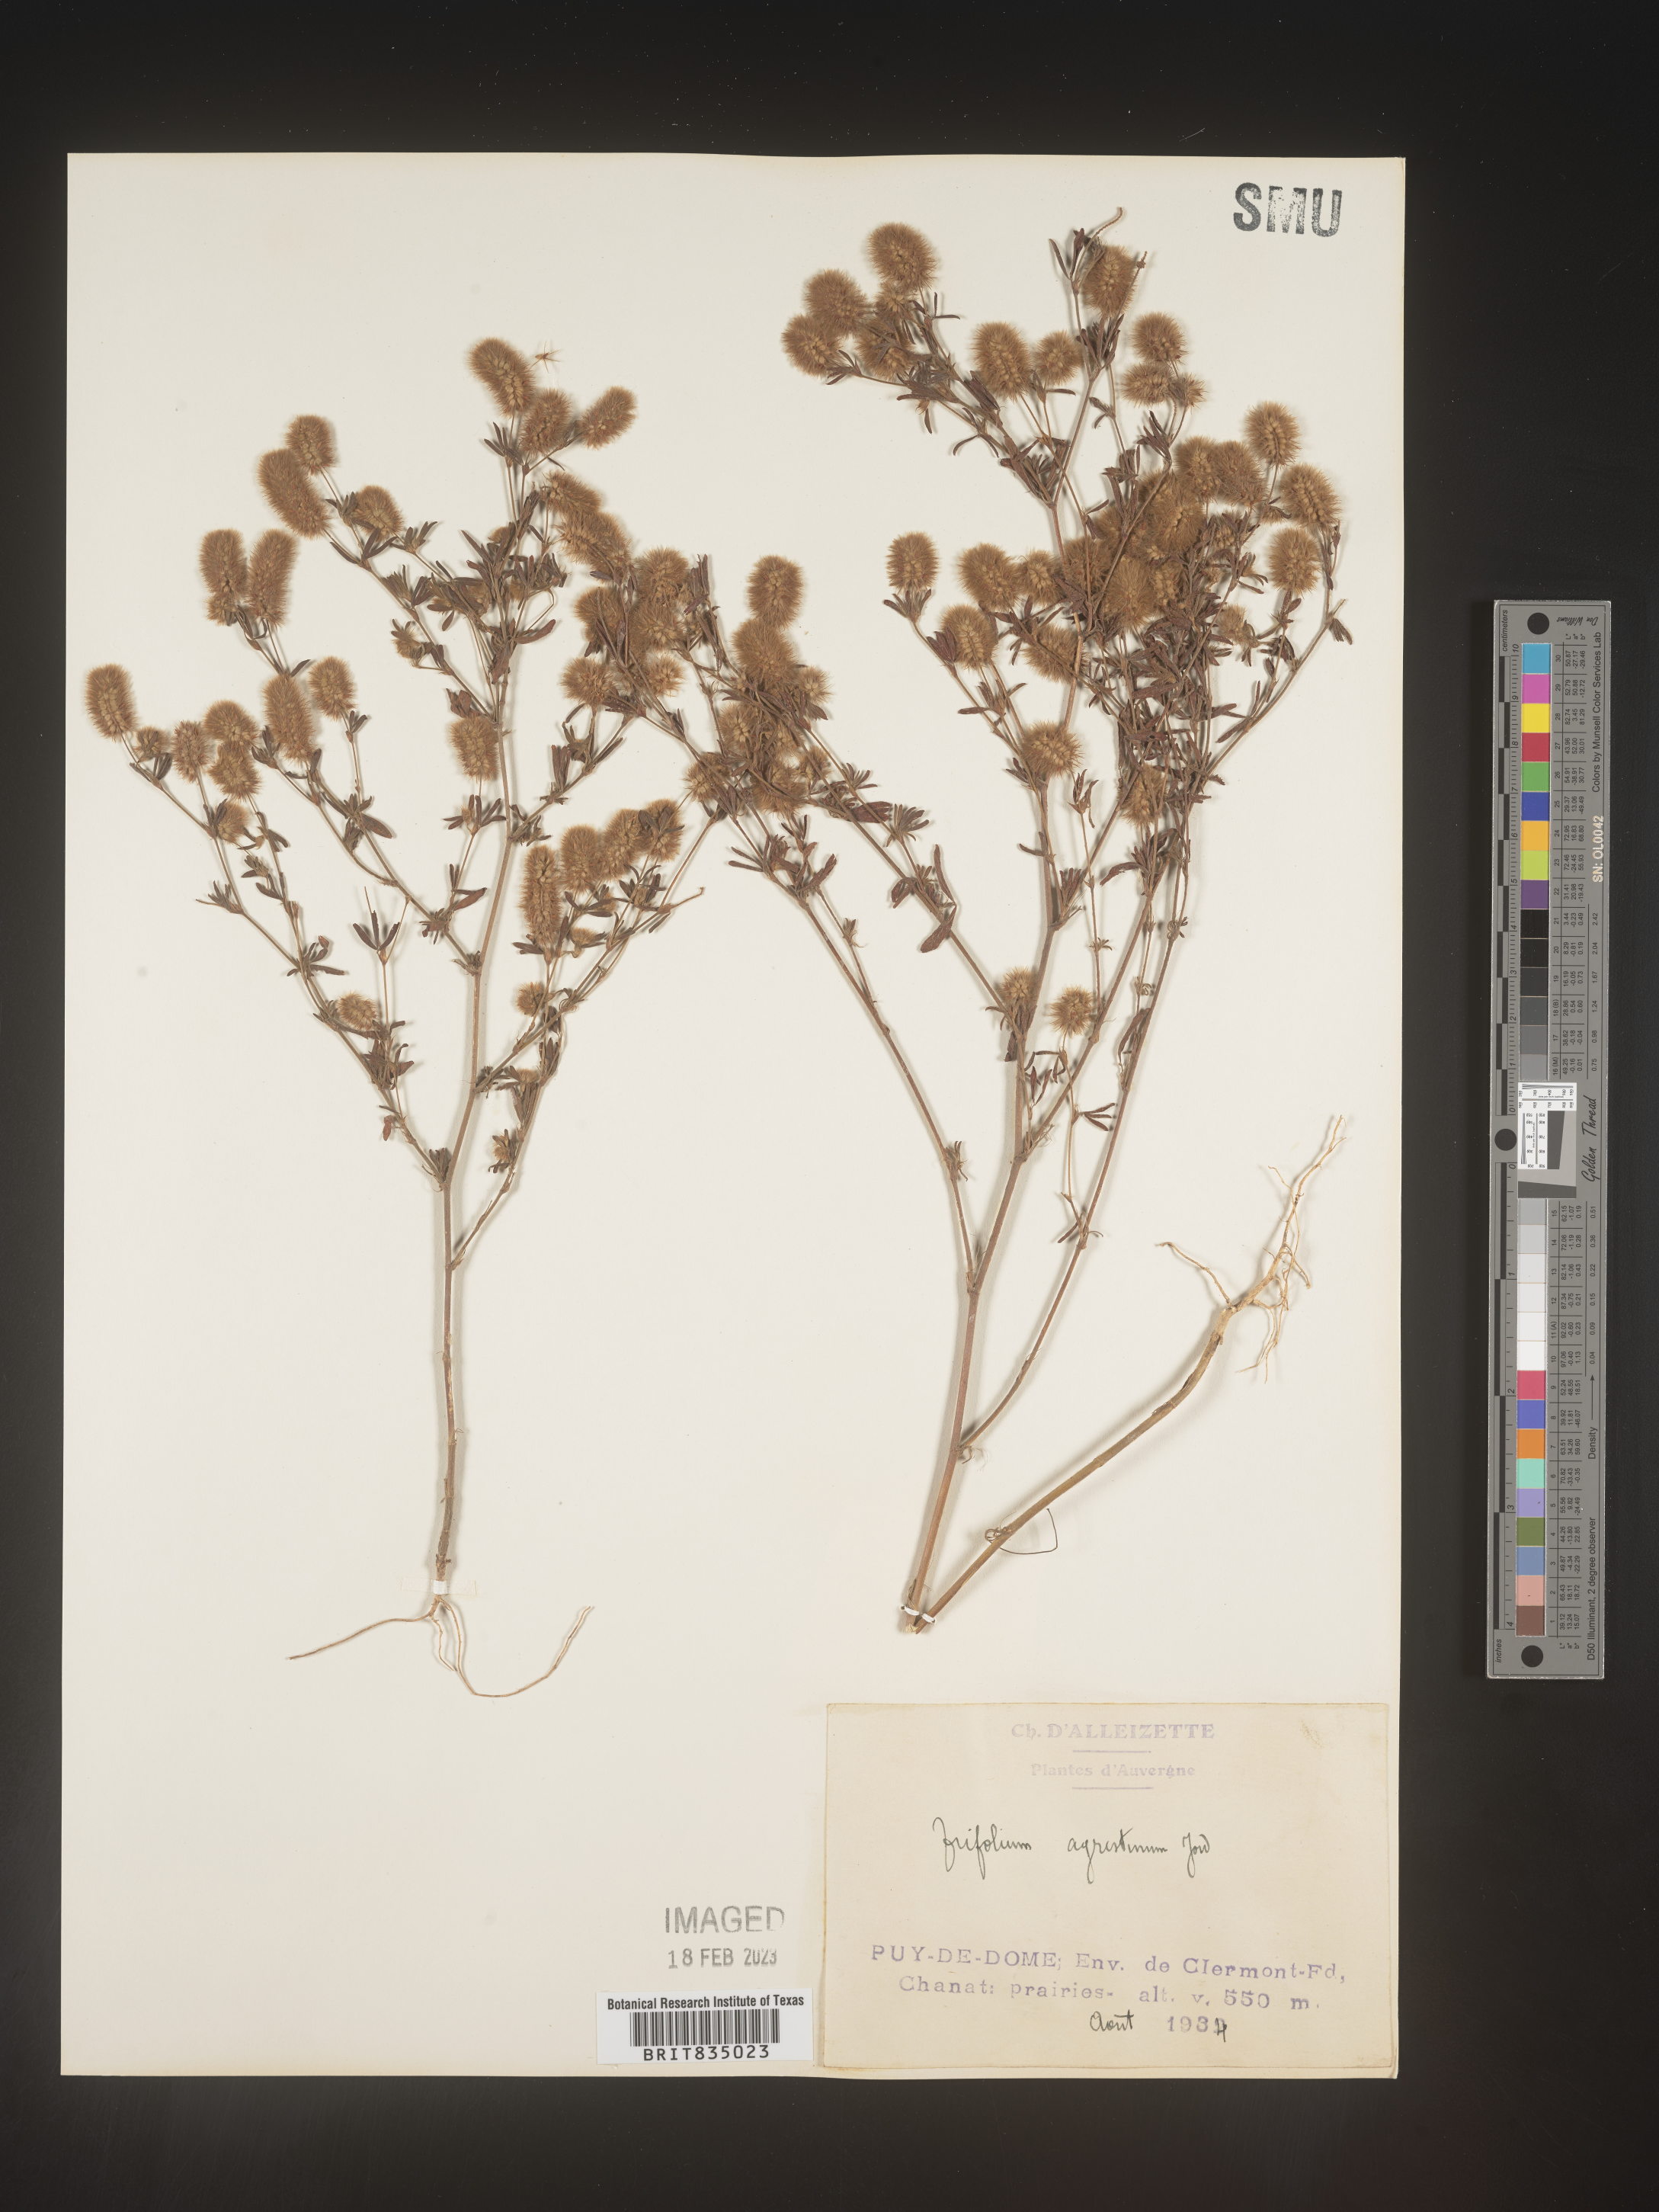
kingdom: Plantae
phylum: Tracheophyta
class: Magnoliopsida
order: Fabales
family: Fabaceae
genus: Trifolium
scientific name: Trifolium
